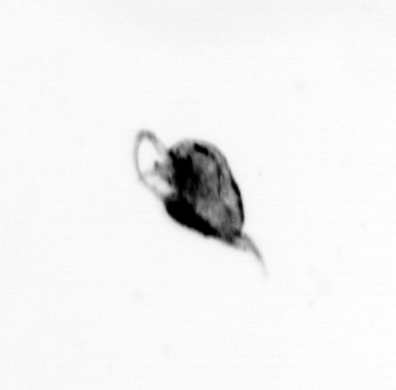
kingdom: Animalia
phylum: Arthropoda
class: Maxillopoda
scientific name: Maxillopoda
